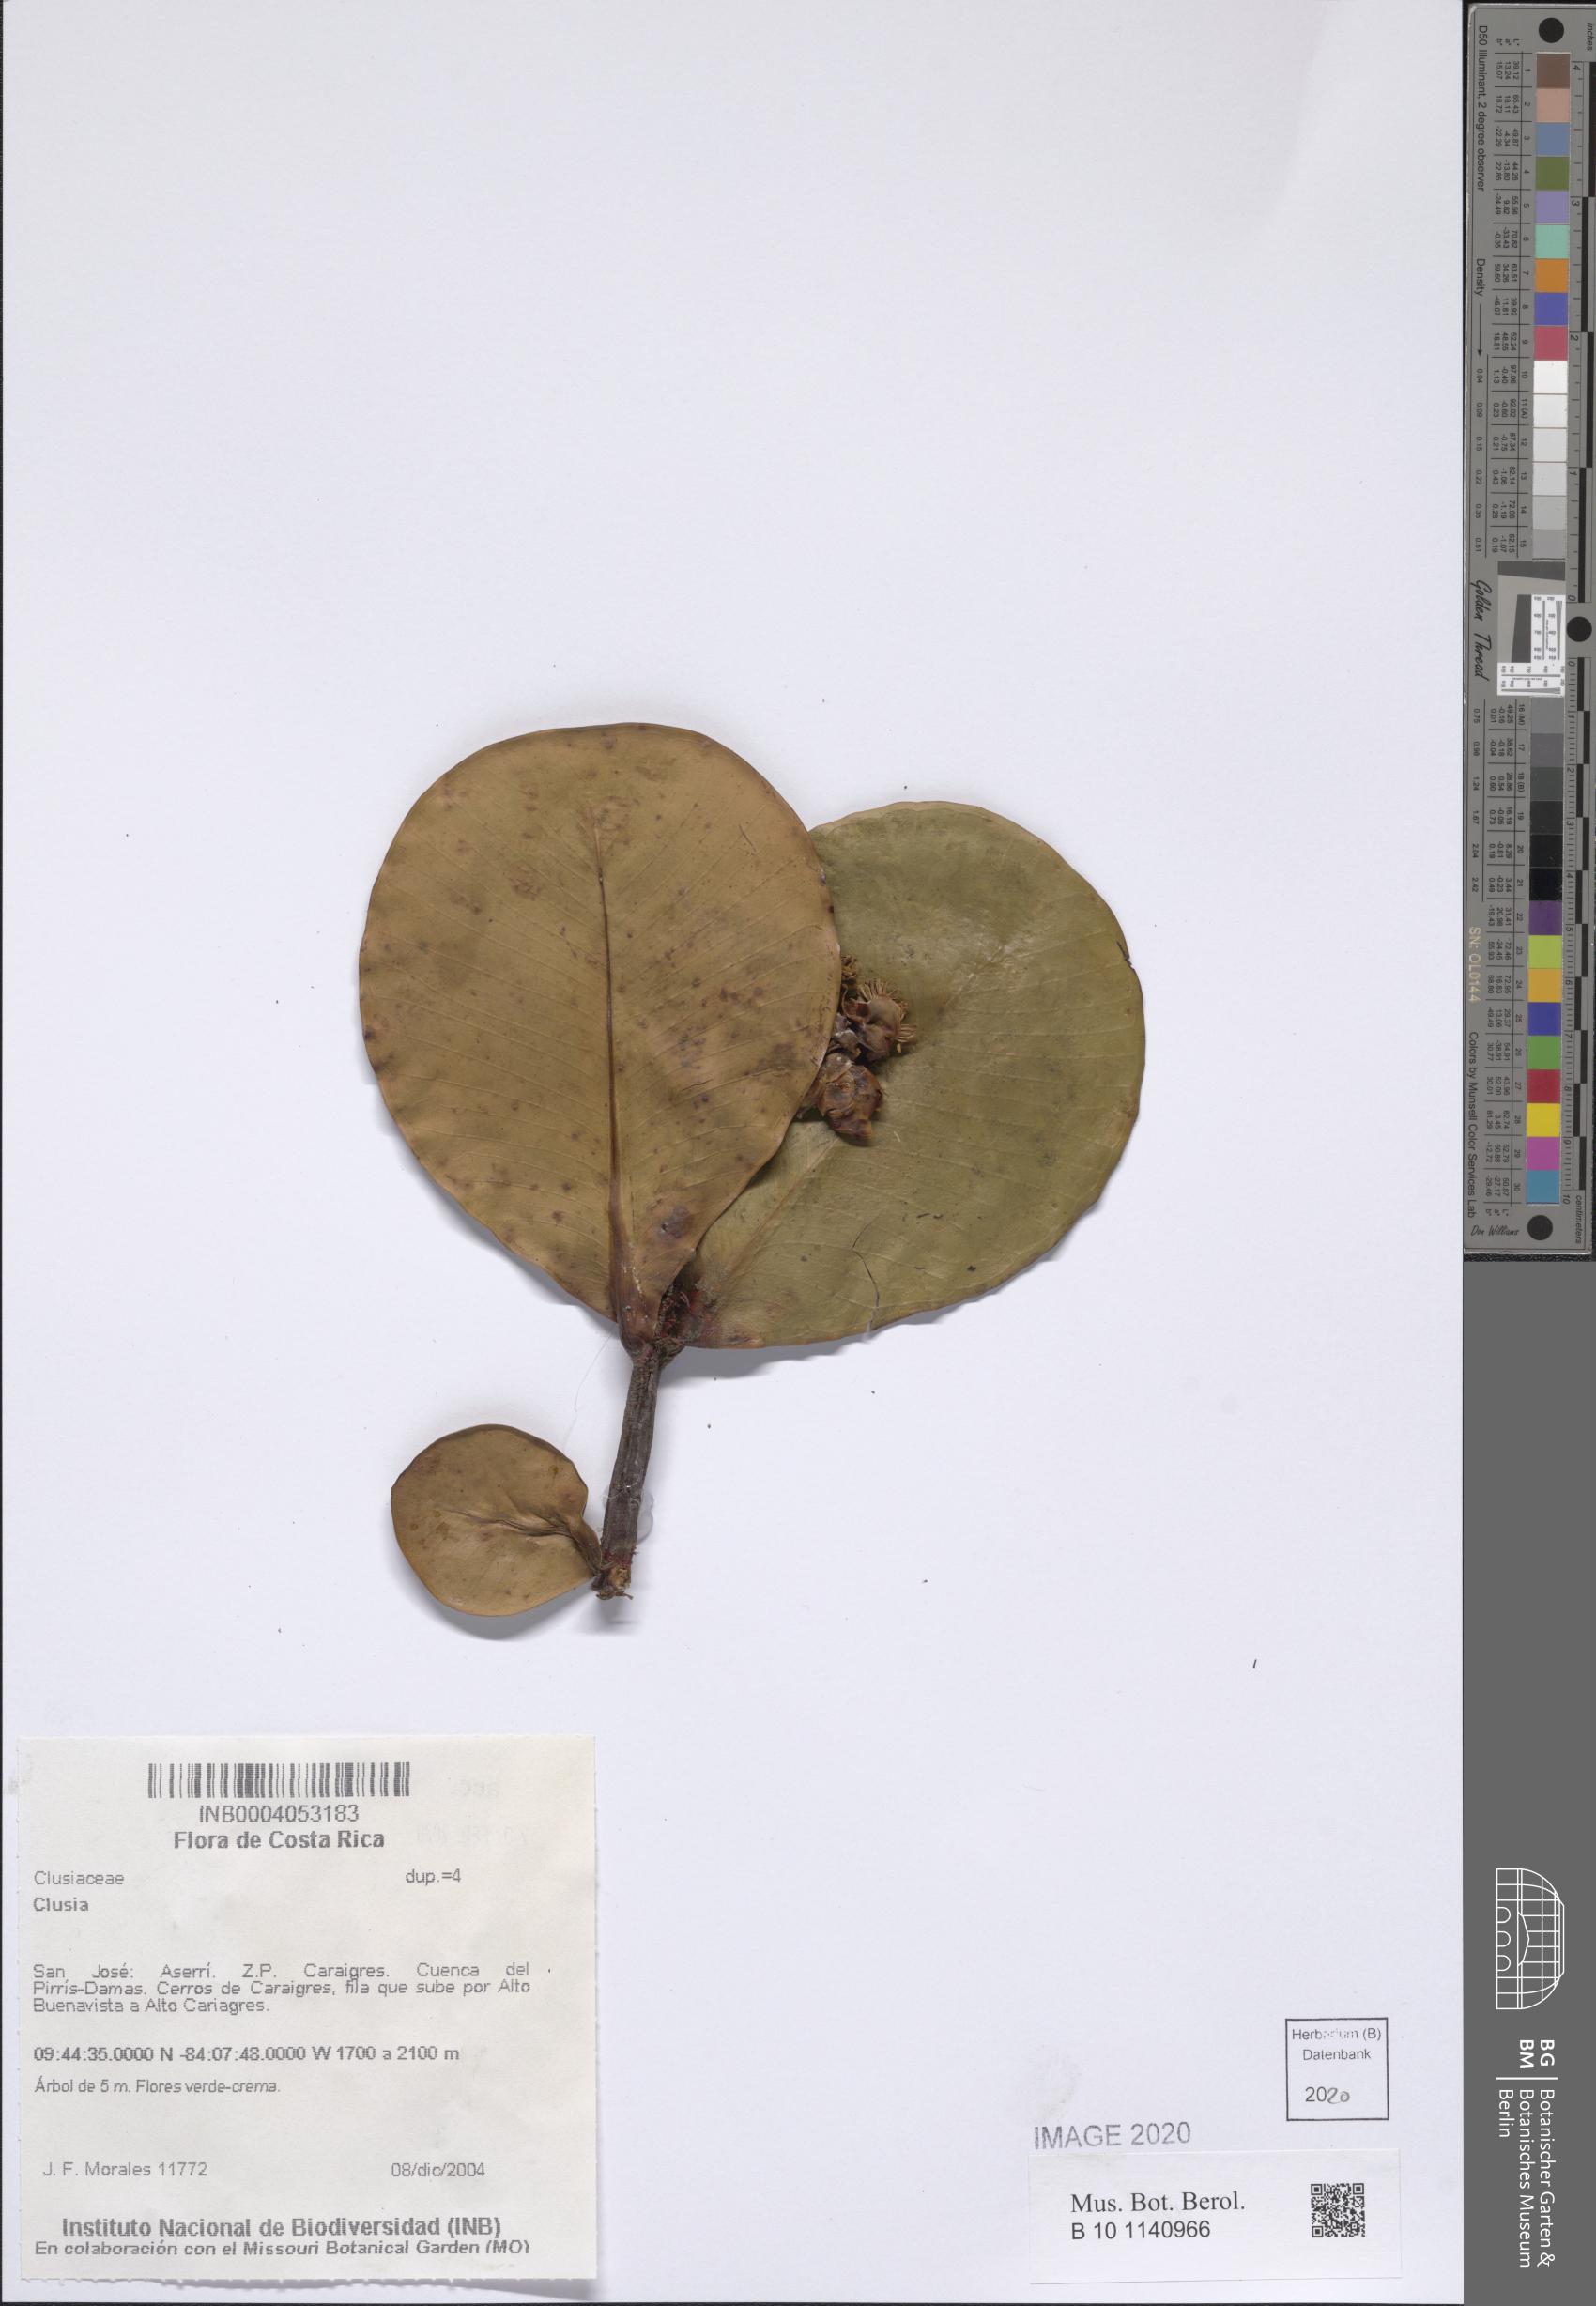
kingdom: Plantae
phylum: Tracheophyta
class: Magnoliopsida
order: Malpighiales
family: Clusiaceae
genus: Clusia
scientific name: Clusia
